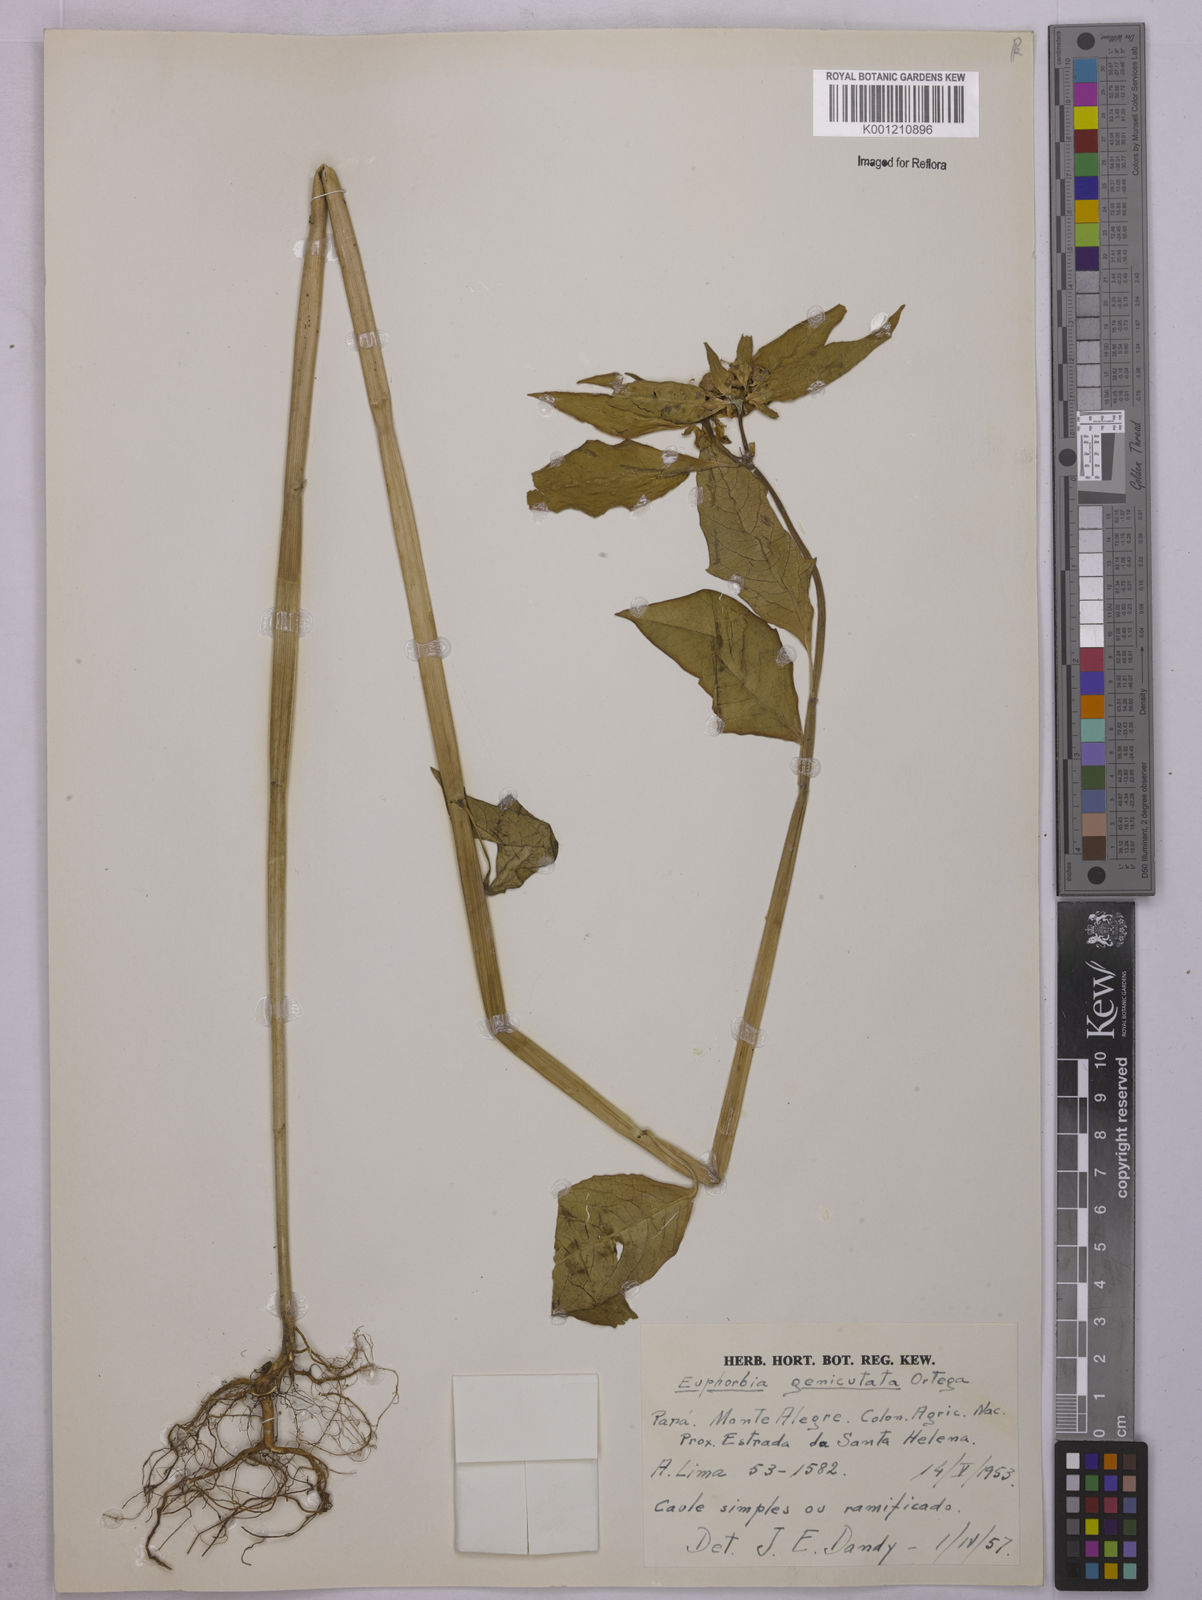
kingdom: Plantae
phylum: Tracheophyta
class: Magnoliopsida
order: Malpighiales
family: Euphorbiaceae
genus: Euphorbia
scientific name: Euphorbia heterophylla
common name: Mexican fireplant
